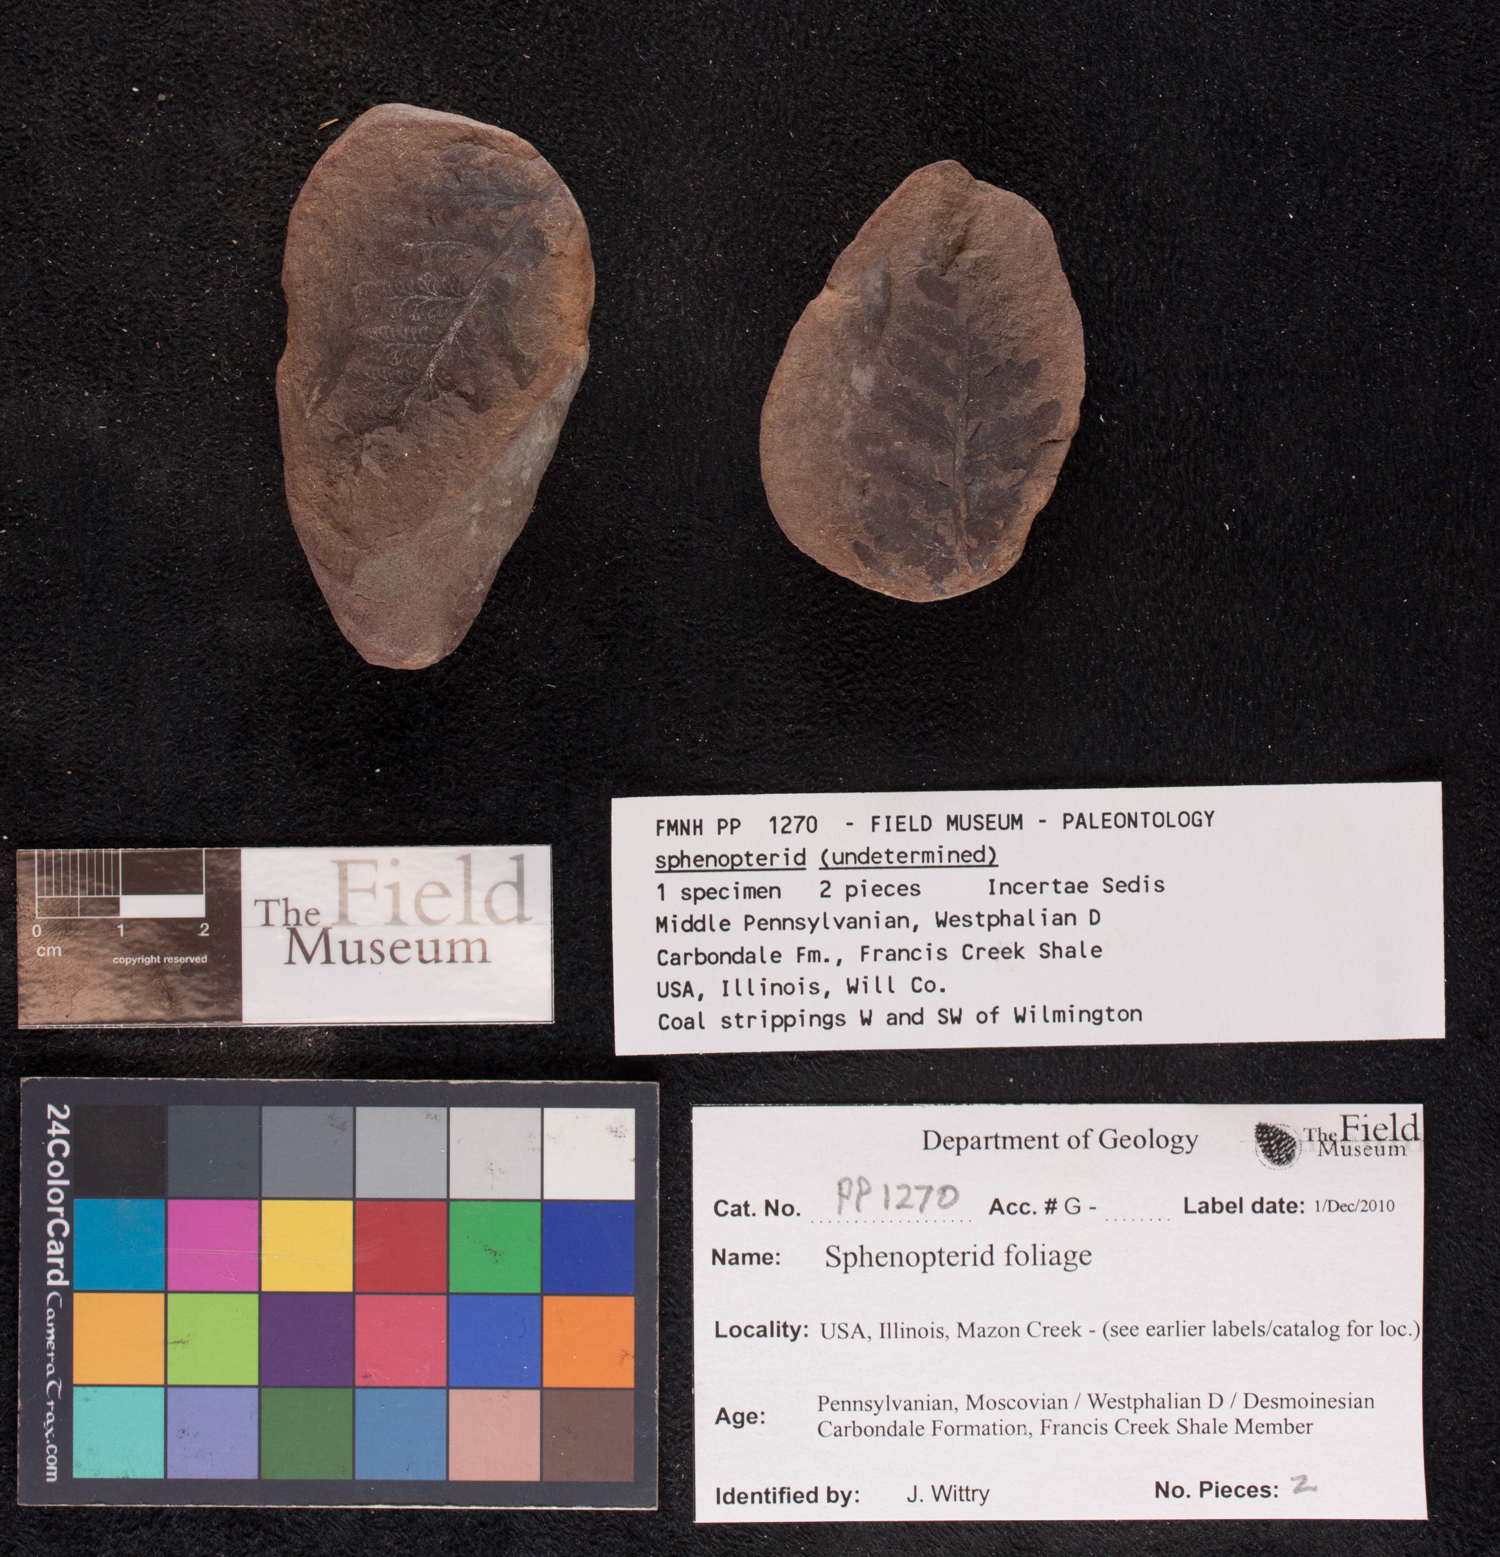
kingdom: Plantae
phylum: Tracheophyta
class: Polypodiopsida
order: Marattiales
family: Marattiaceae
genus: Renaultia
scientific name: Renaultia
